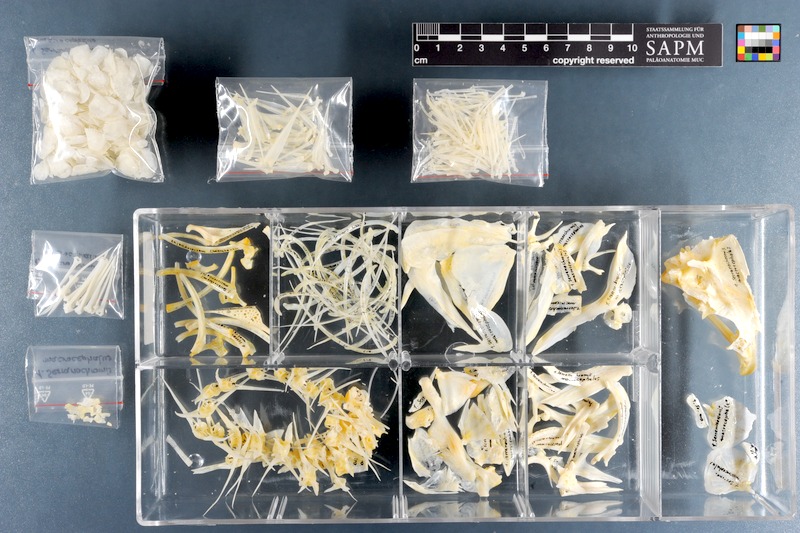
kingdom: Animalia
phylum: Chordata
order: Perciformes
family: Cichlidae
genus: Serranochromis
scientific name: Serranochromis macrocephalus
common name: Purpleface largemouth
